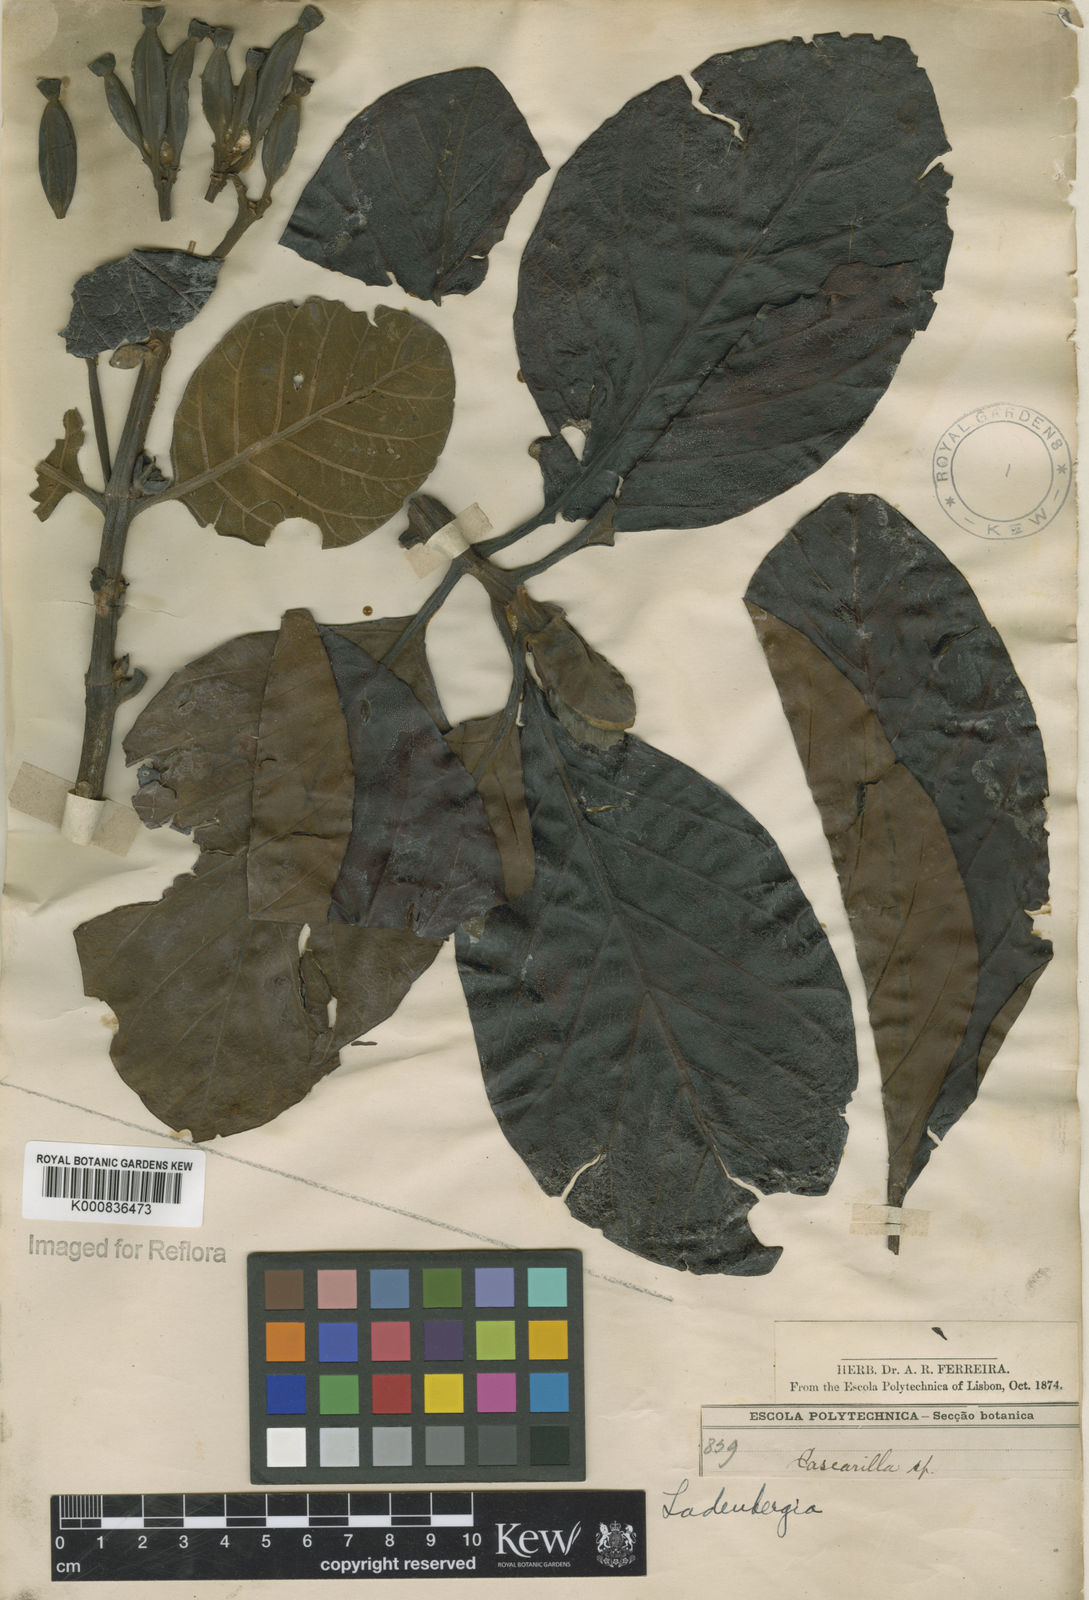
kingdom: Plantae
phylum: Tracheophyta
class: Magnoliopsida
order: Gentianales
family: Rubiaceae
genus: Ladenbergia
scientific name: Ladenbergia hexandra
